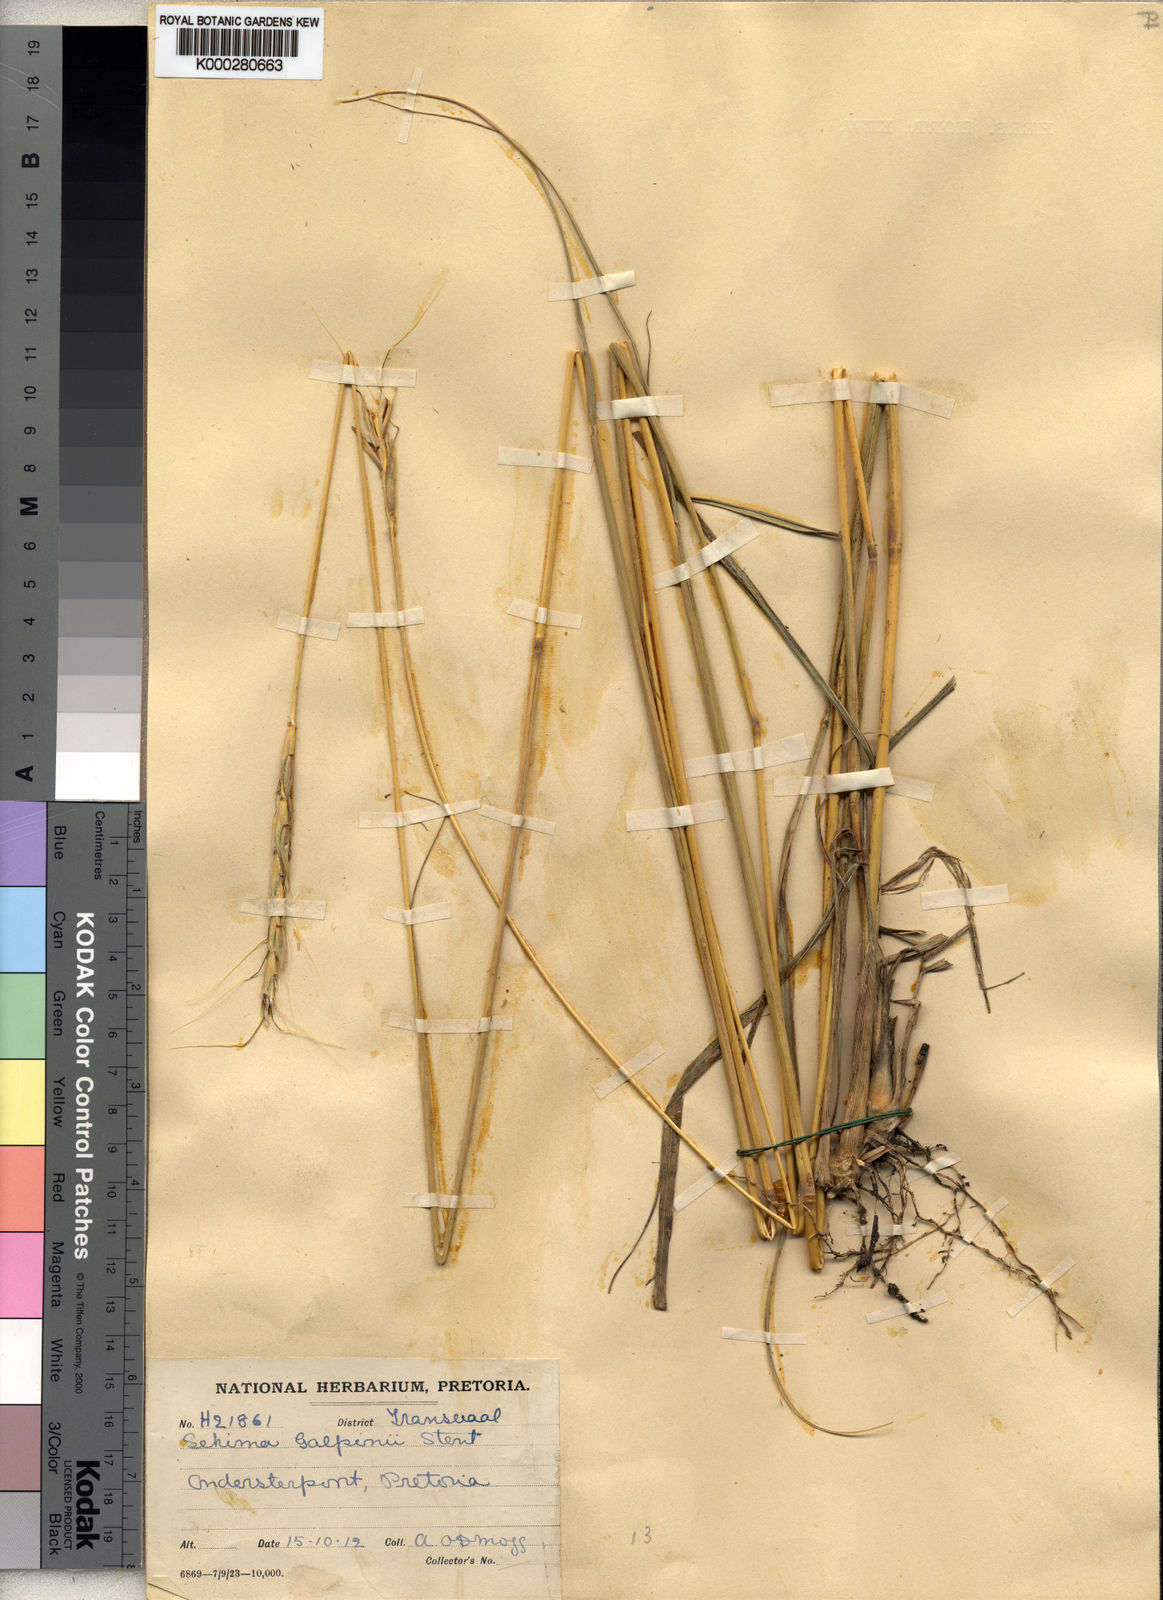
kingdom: Plantae
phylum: Tracheophyta
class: Liliopsida
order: Poales
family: Poaceae
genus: Sehima
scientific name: Sehima galpinii
